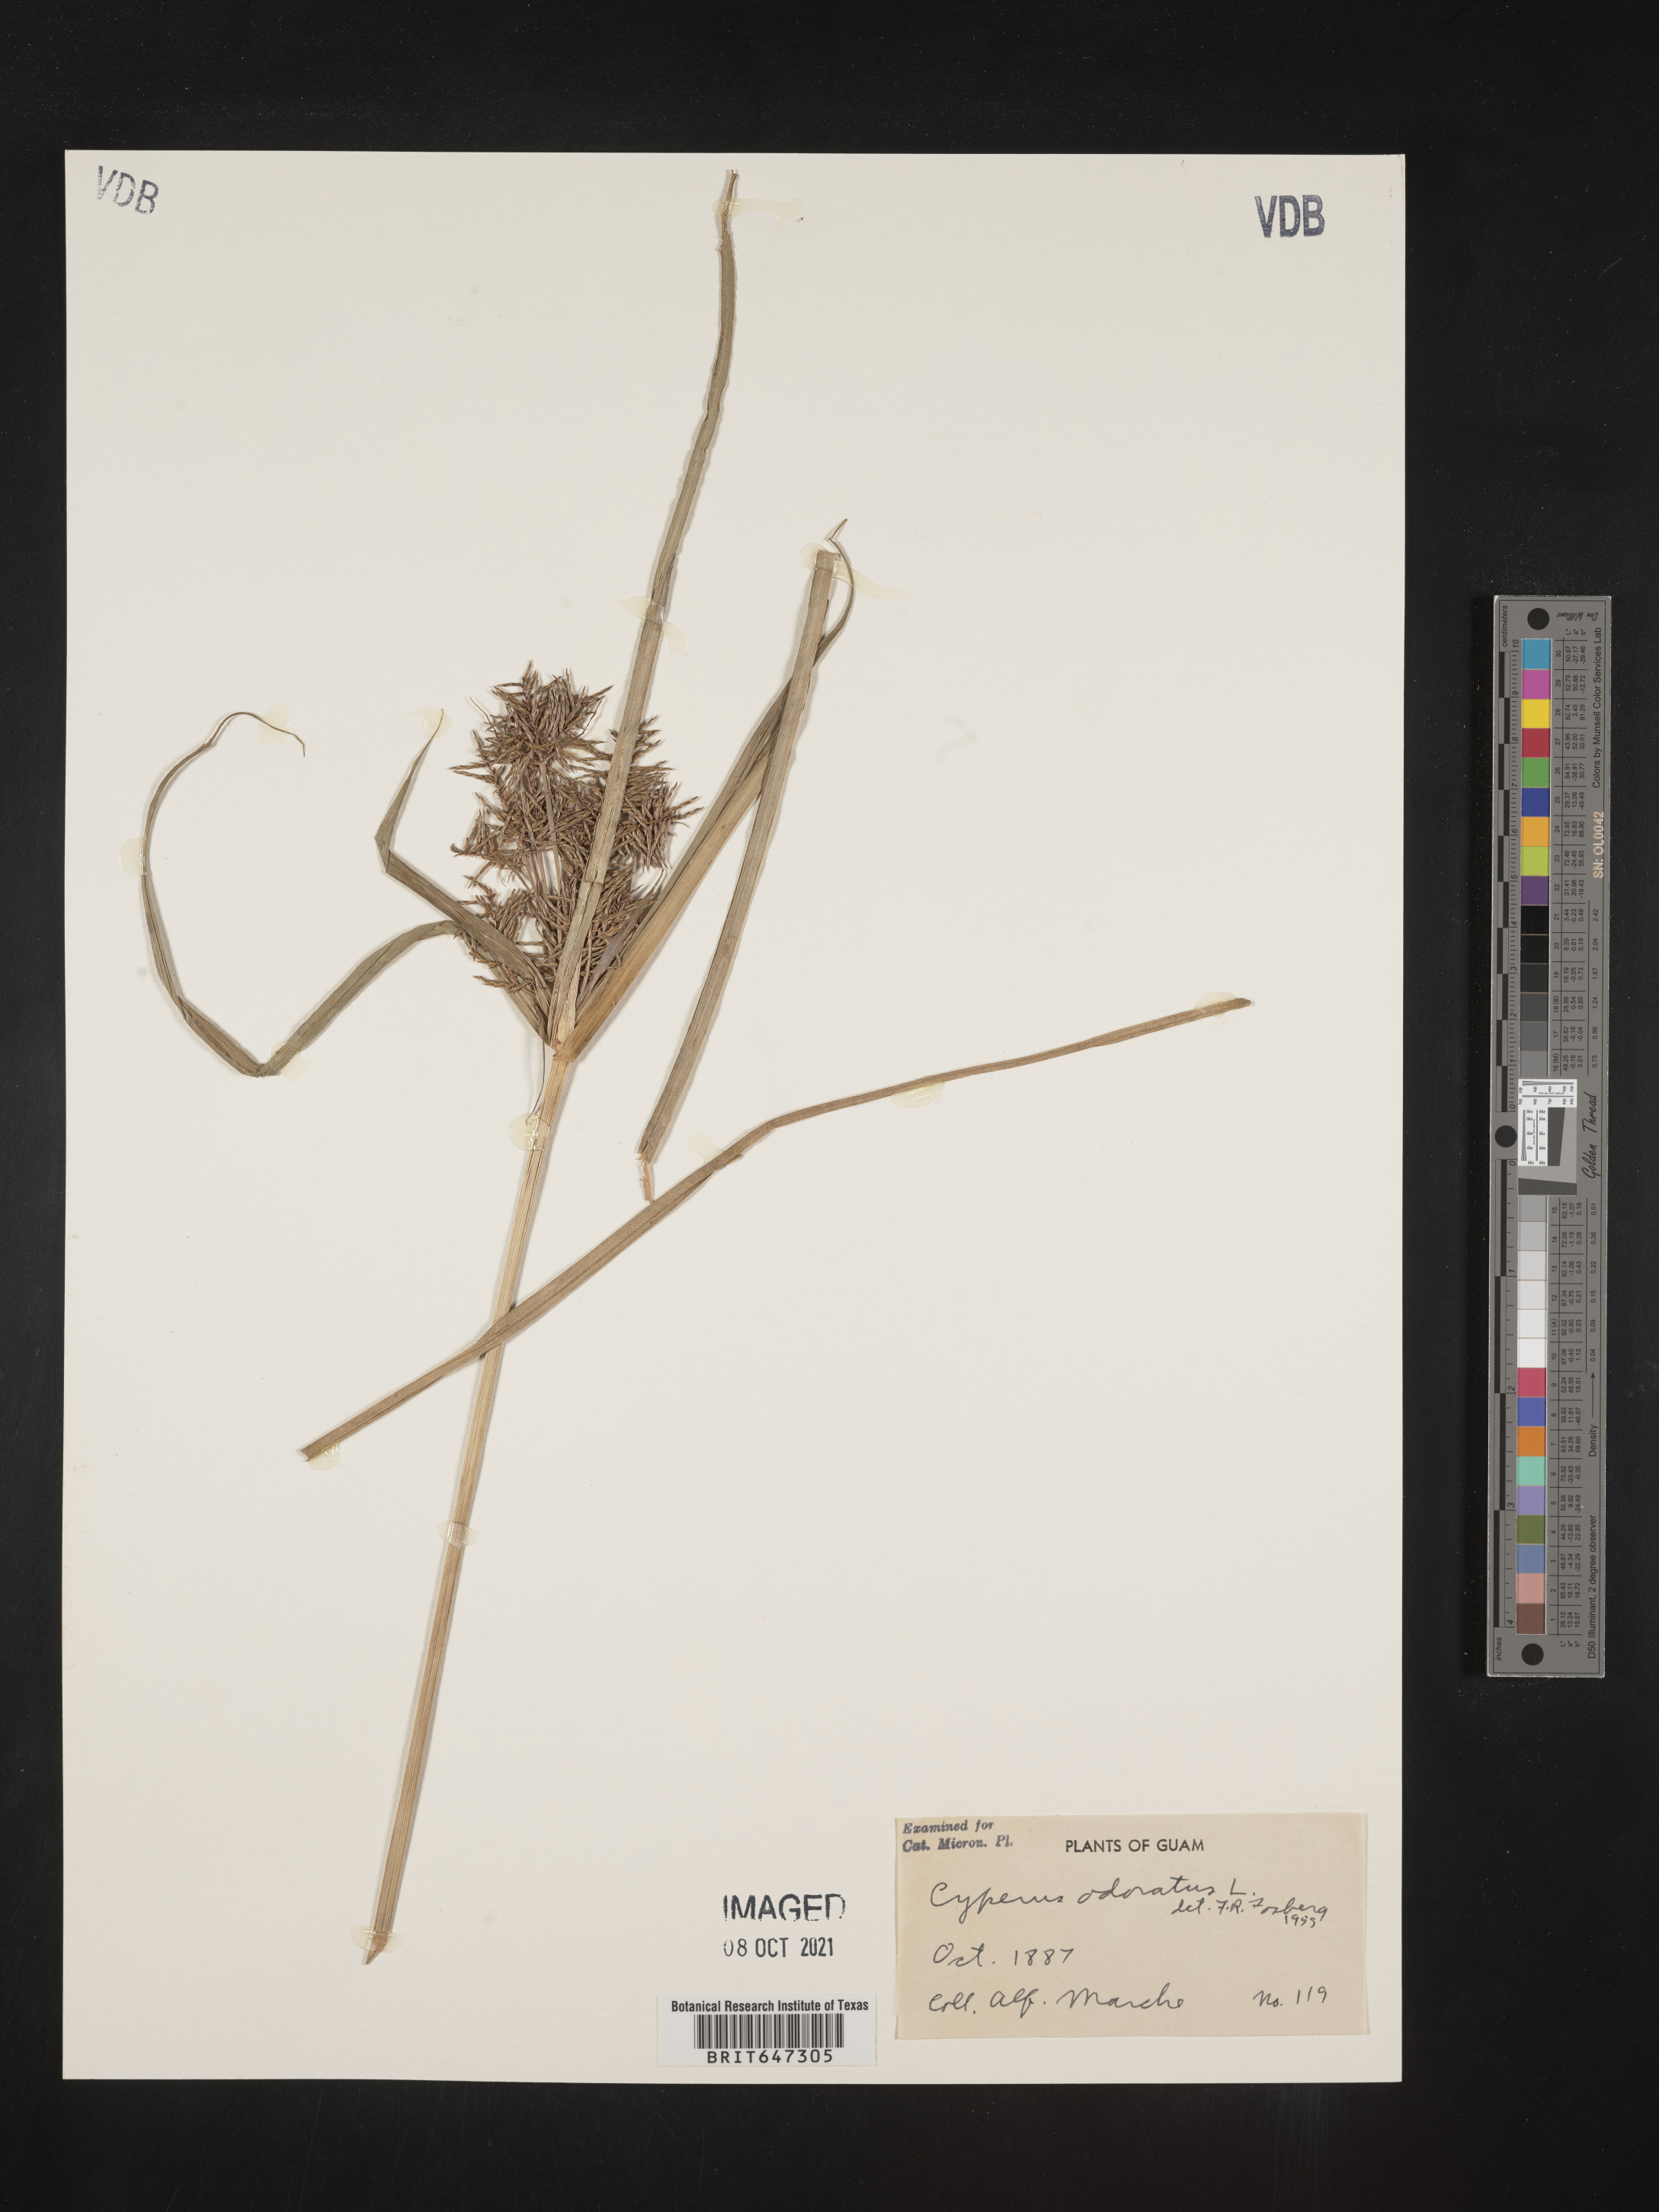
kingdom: Plantae
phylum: Tracheophyta
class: Liliopsida
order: Poales
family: Cyperaceae
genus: Cyperus
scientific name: Cyperus odoratus
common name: Fragrant flatsedge
